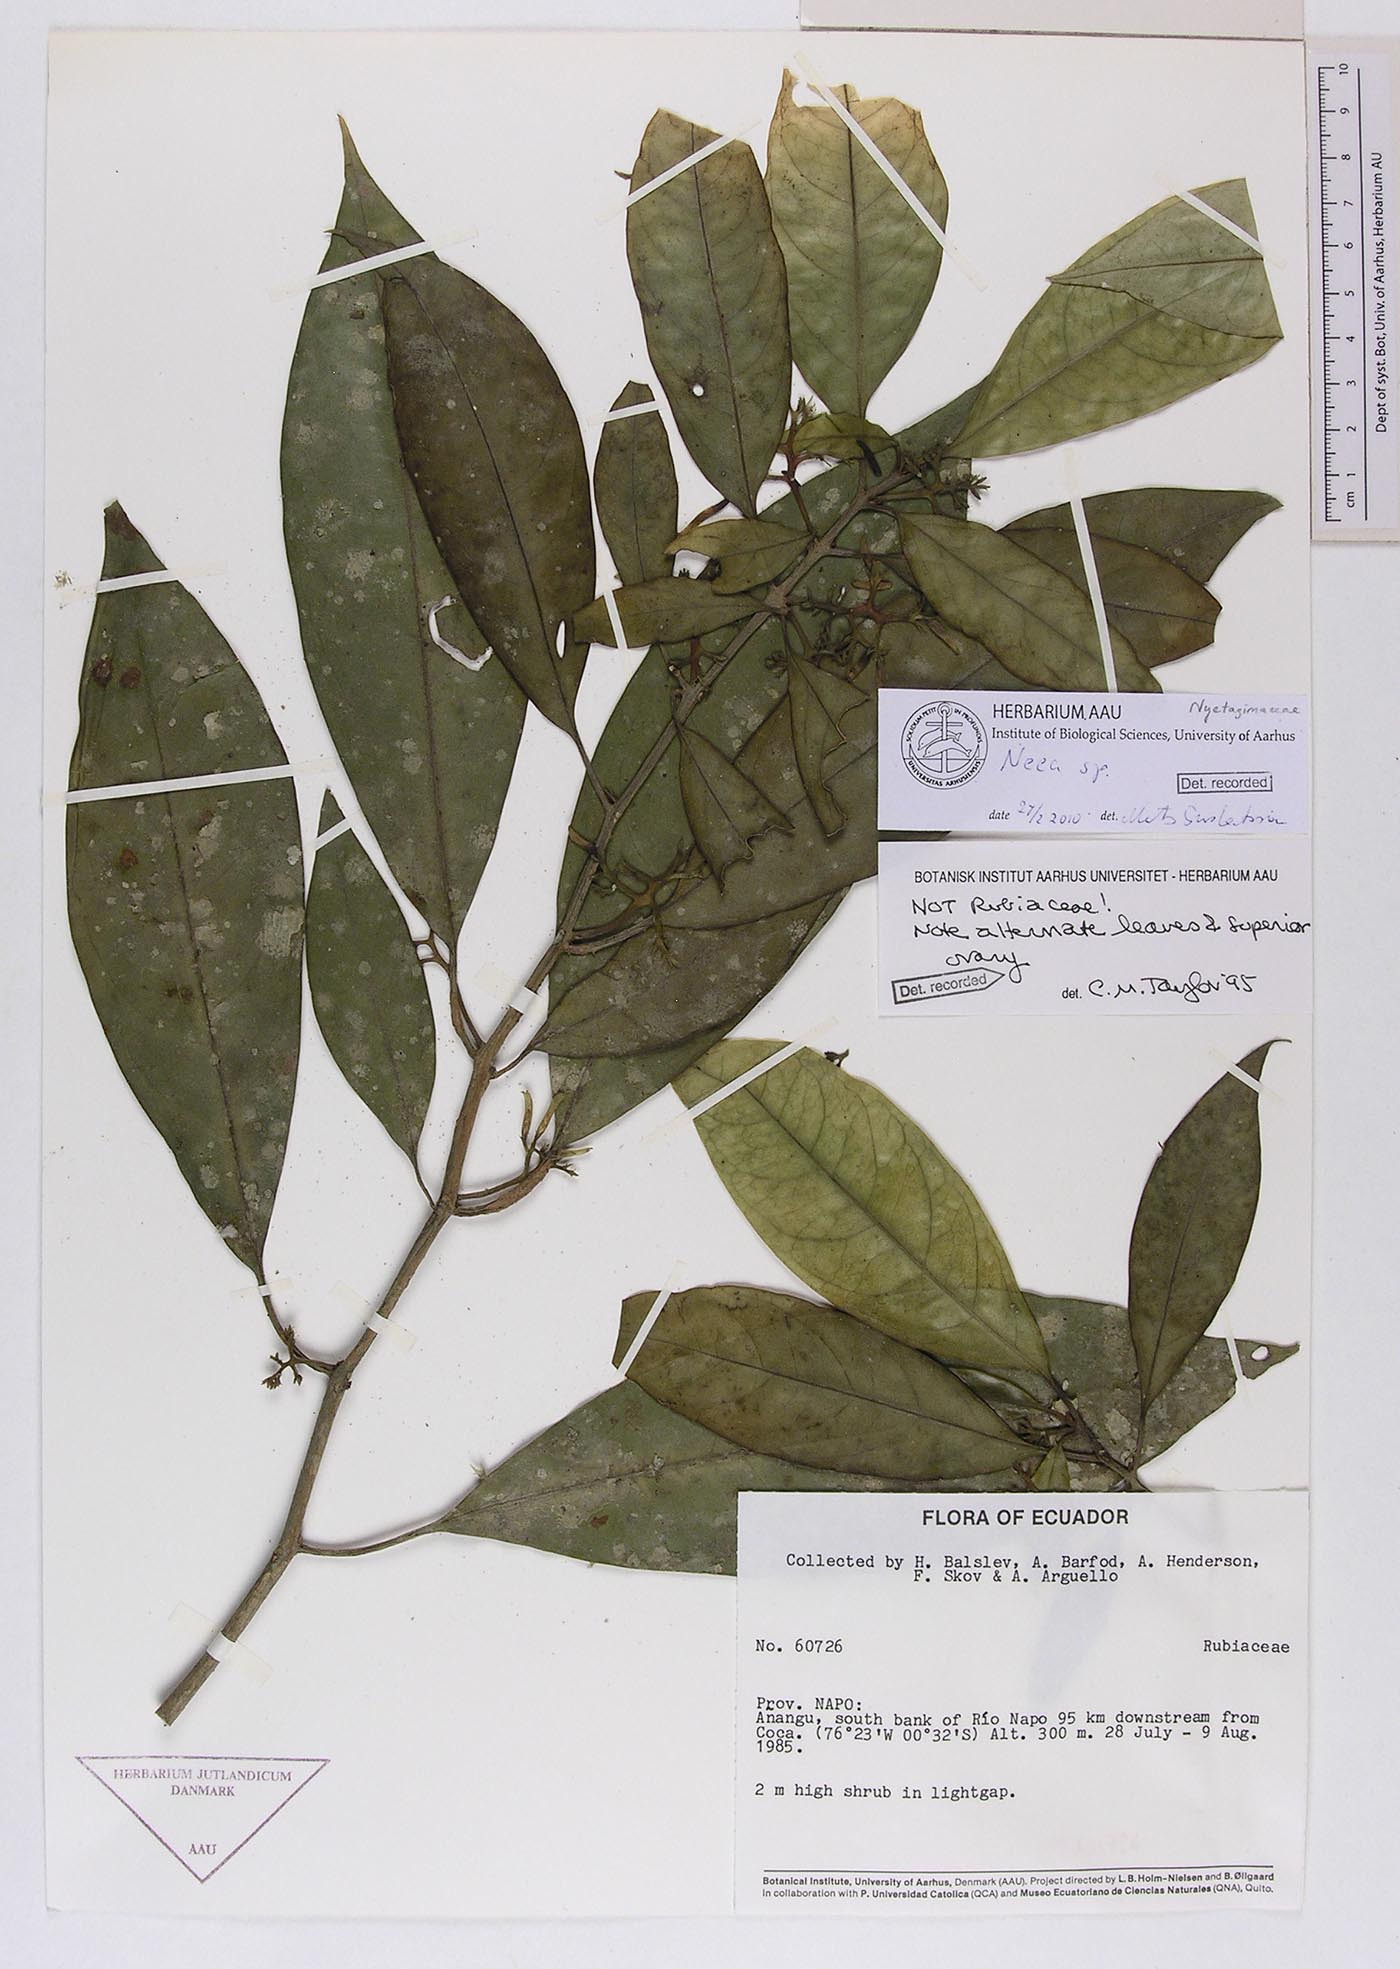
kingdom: Plantae
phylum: Tracheophyta
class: Magnoliopsida
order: Caryophyllales
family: Nyctaginaceae
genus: Neea
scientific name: Neea
